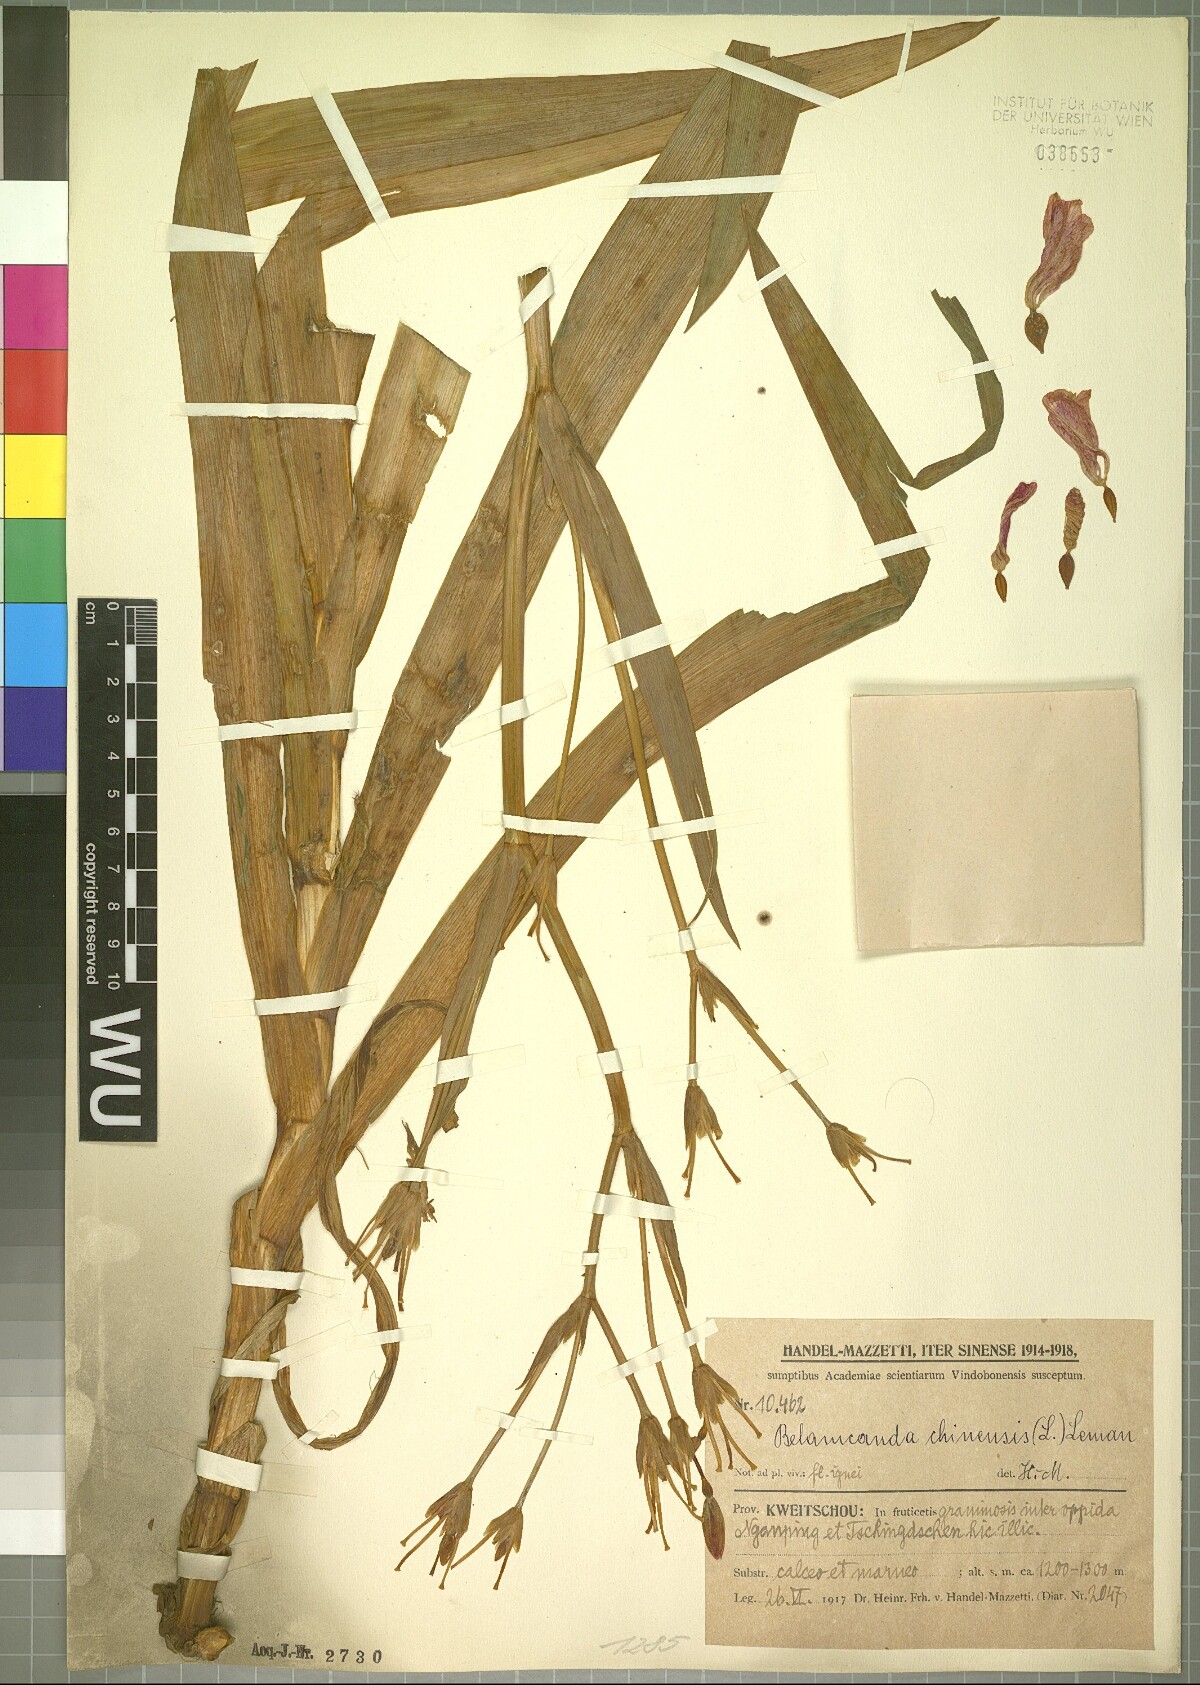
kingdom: Plantae
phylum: Tracheophyta
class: Liliopsida
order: Asparagales
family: Iridaceae
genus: Iris
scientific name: Iris domestica
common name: Belamcanda
